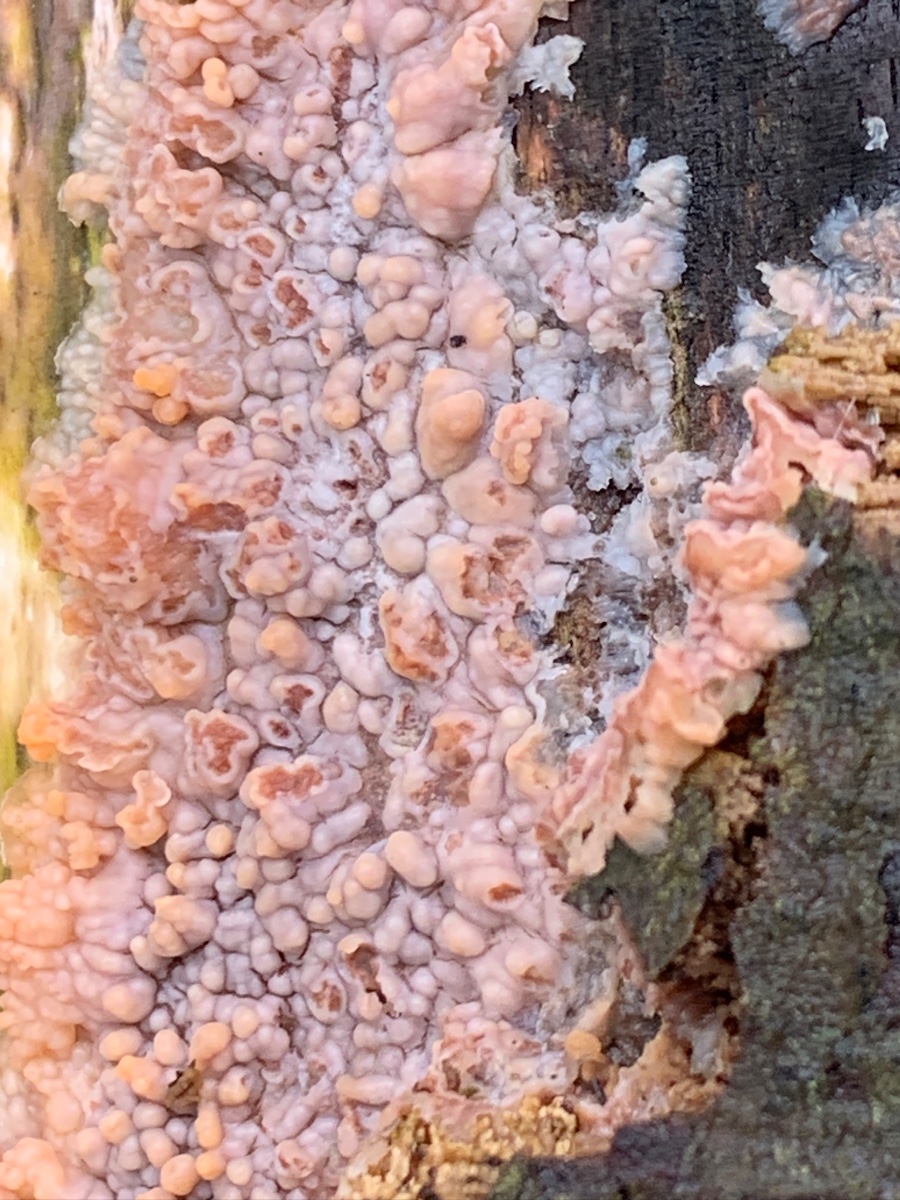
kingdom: Fungi
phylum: Basidiomycota
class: Agaricomycetes
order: Polyporales
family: Meruliaceae
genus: Phlebia
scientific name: Phlebia radiata
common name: stråle-åresvamp
